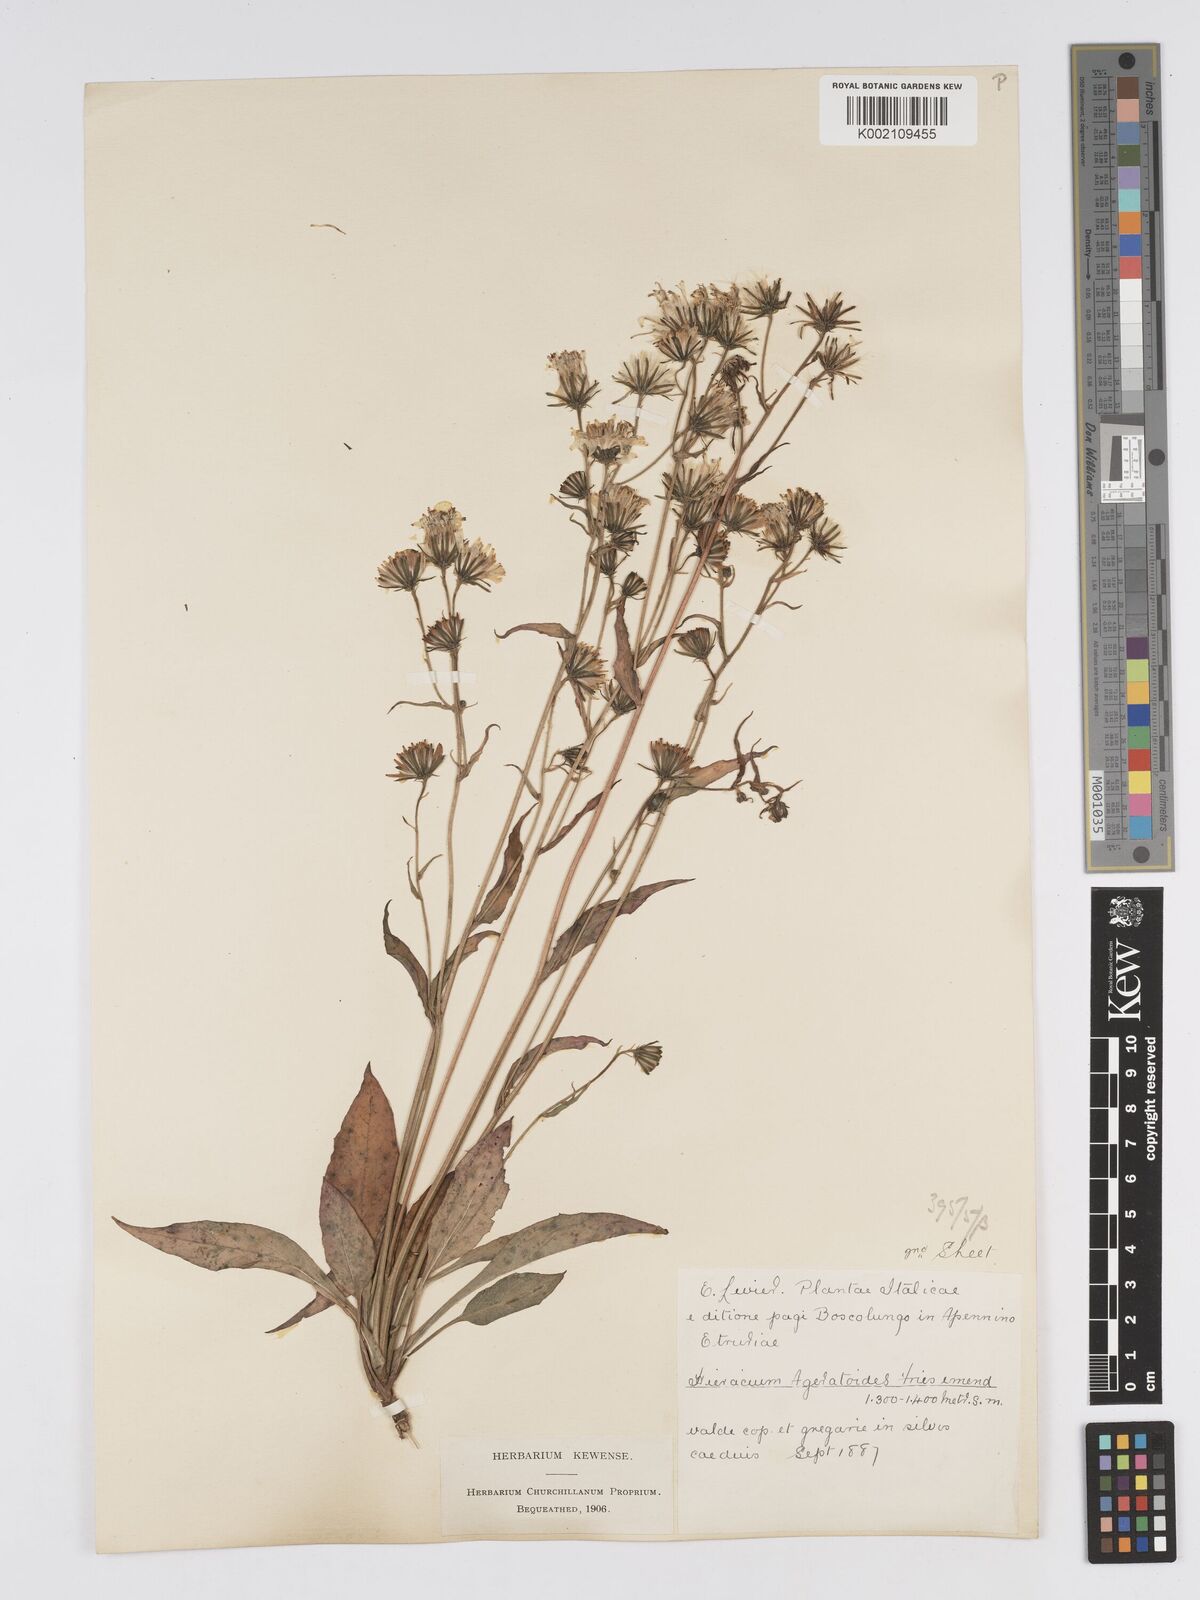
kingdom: Plantae
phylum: Tracheophyta
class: Magnoliopsida
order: Asterales
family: Asteraceae
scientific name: Asteraceae
